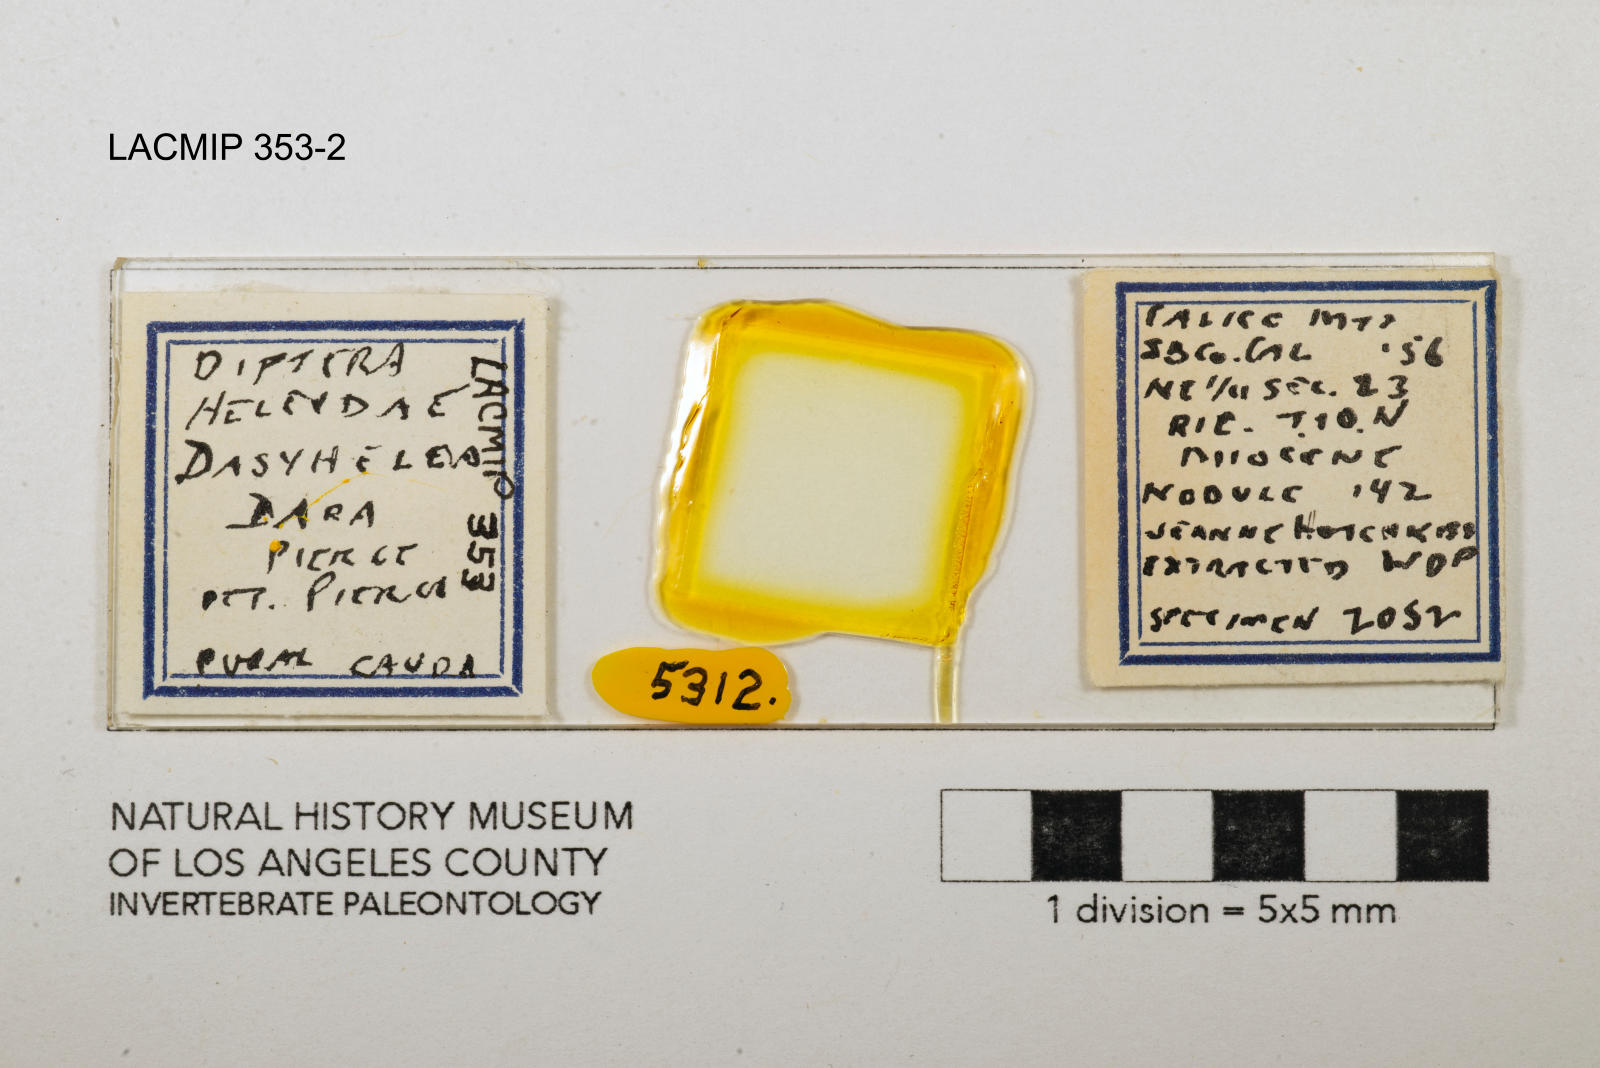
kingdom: Animalia
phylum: Arthropoda
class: Insecta
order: Diptera
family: Ceratopogonidae
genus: Dasyhelea
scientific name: Dasyhelea dara
